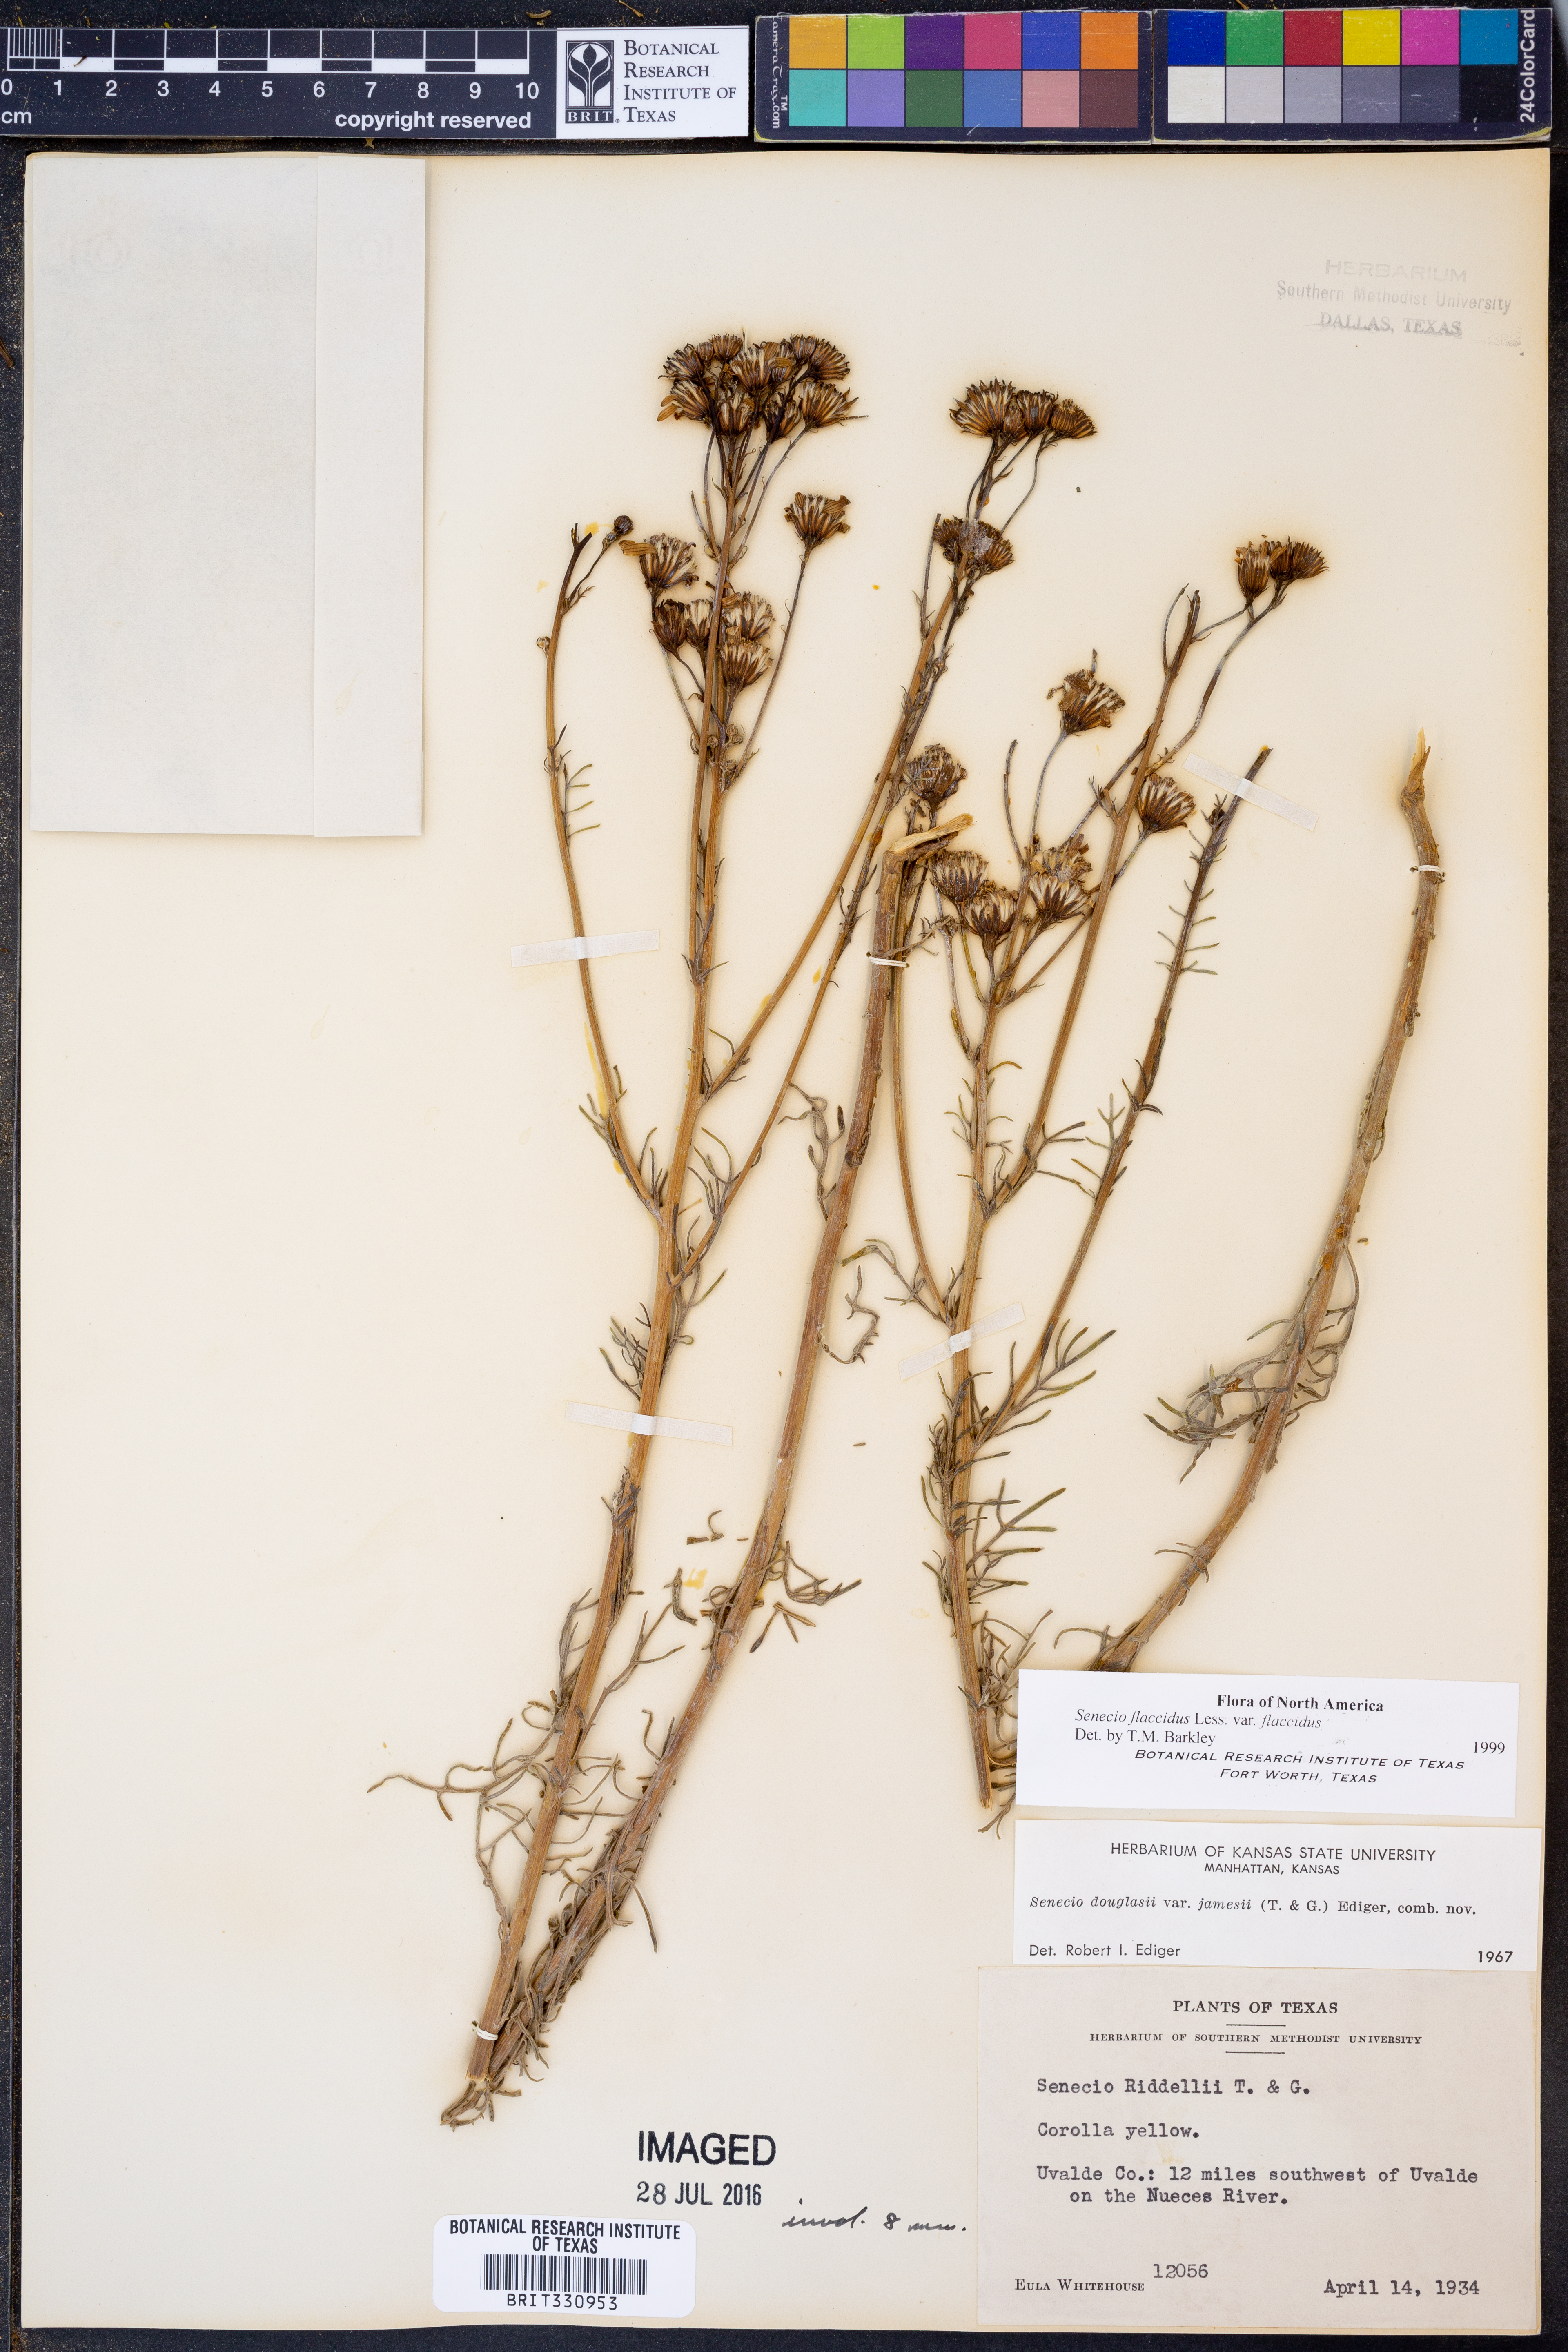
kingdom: Plantae
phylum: Tracheophyta
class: Magnoliopsida
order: Asterales
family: Asteraceae
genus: Senecio
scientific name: Senecio flaccidus
